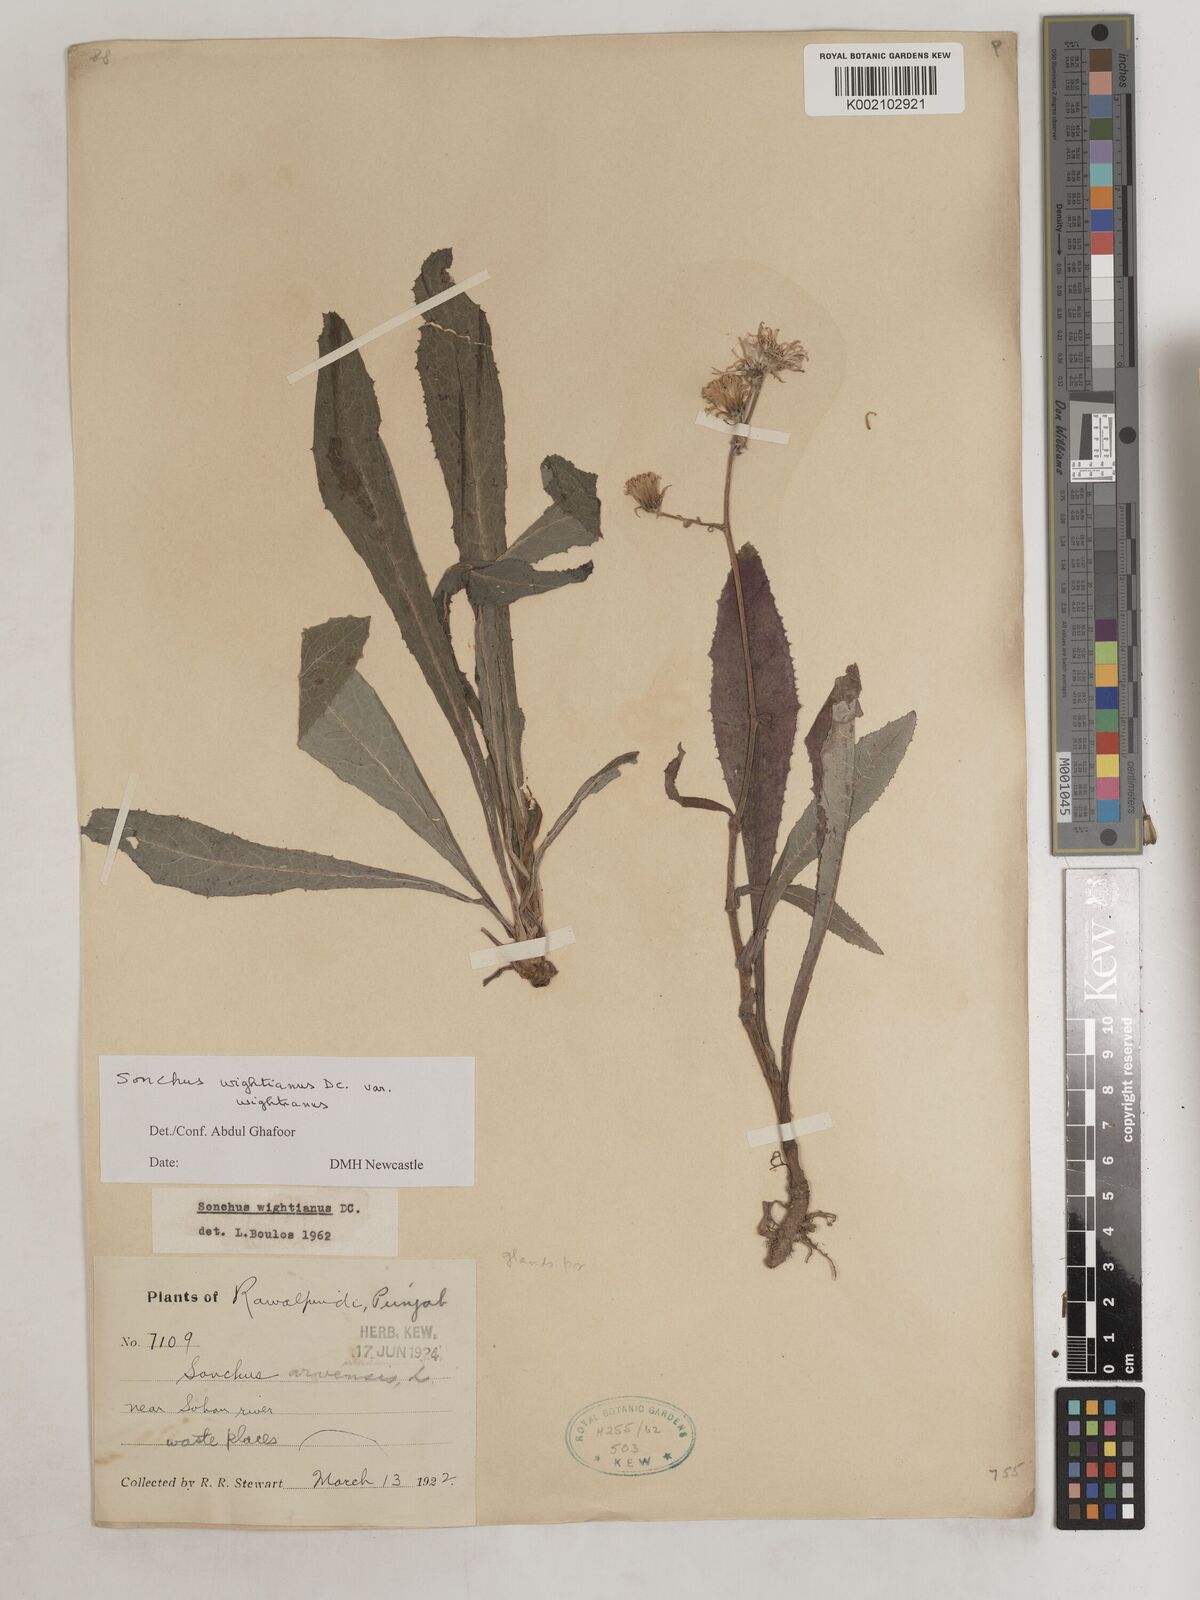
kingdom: Plantae
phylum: Tracheophyta
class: Magnoliopsida
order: Asterales
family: Asteraceae
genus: Sonchus
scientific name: Sonchus arvensis
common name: Perennial sow-thistle
